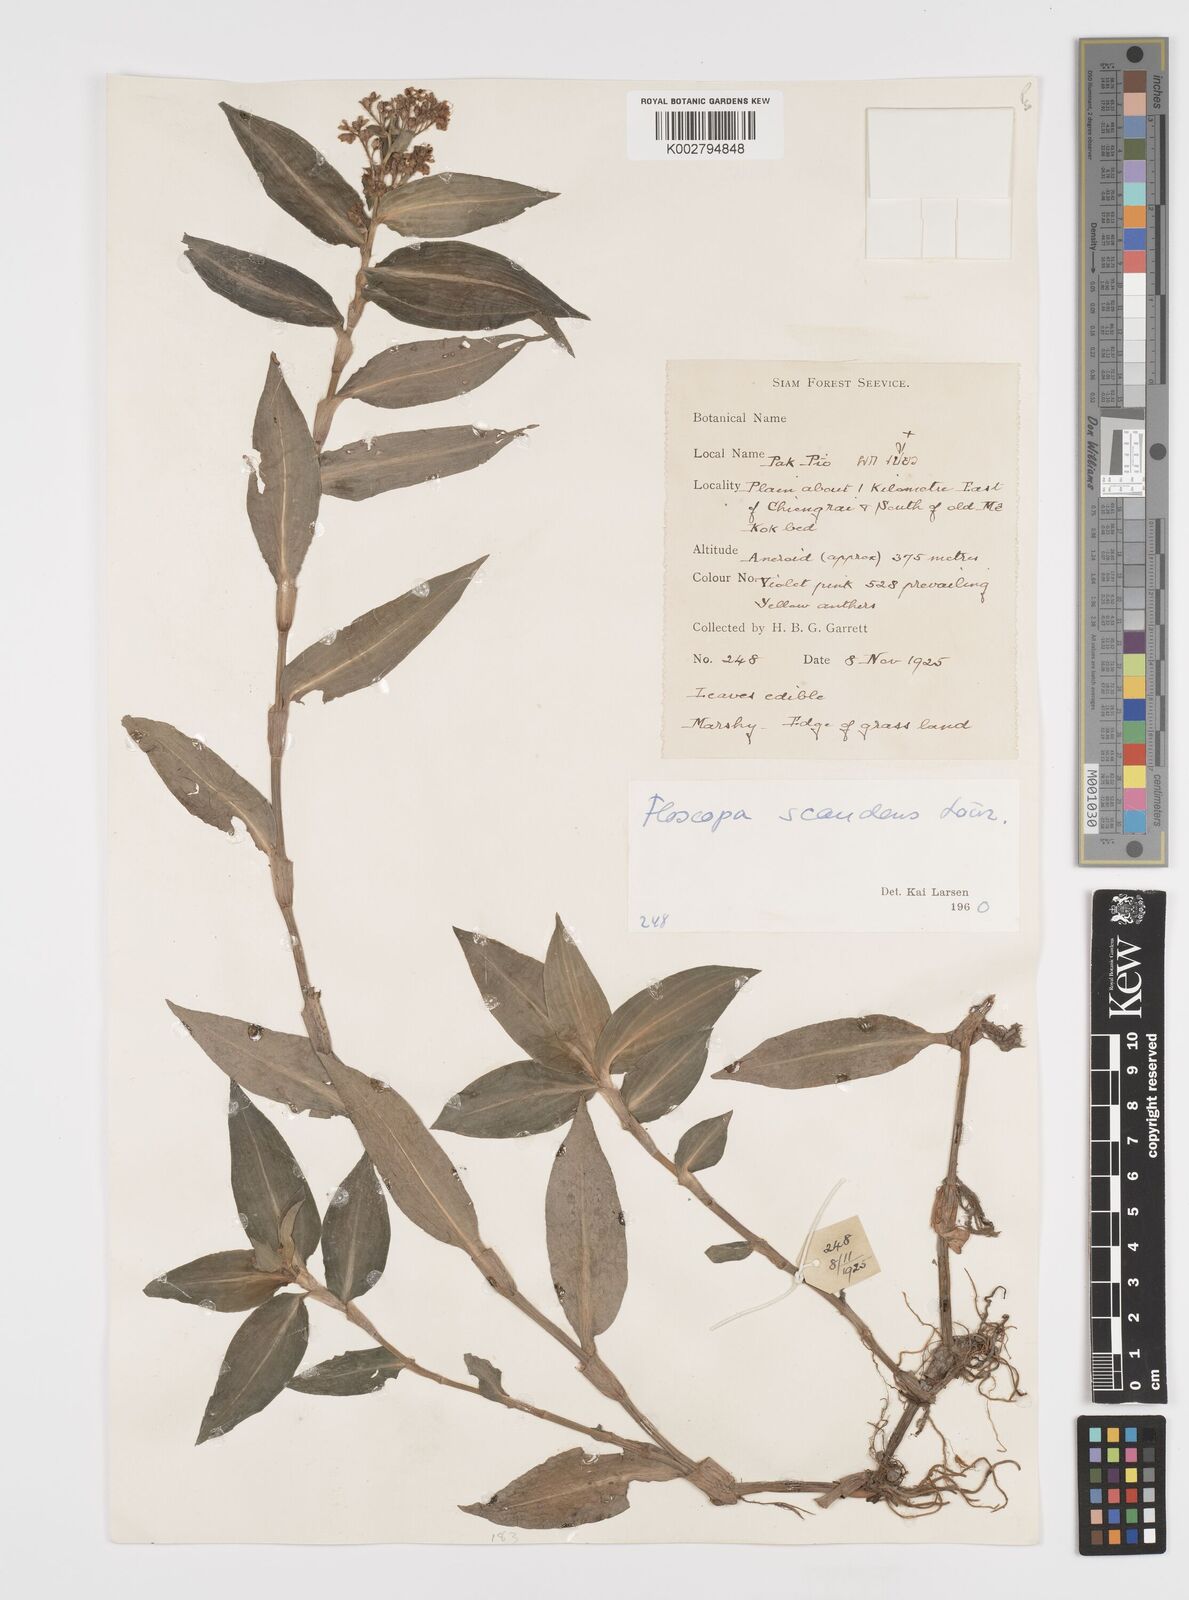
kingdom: Plantae
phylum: Tracheophyta
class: Liliopsida
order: Commelinales
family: Commelinaceae
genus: Floscopa
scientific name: Floscopa scandens
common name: Climbing flower cup
